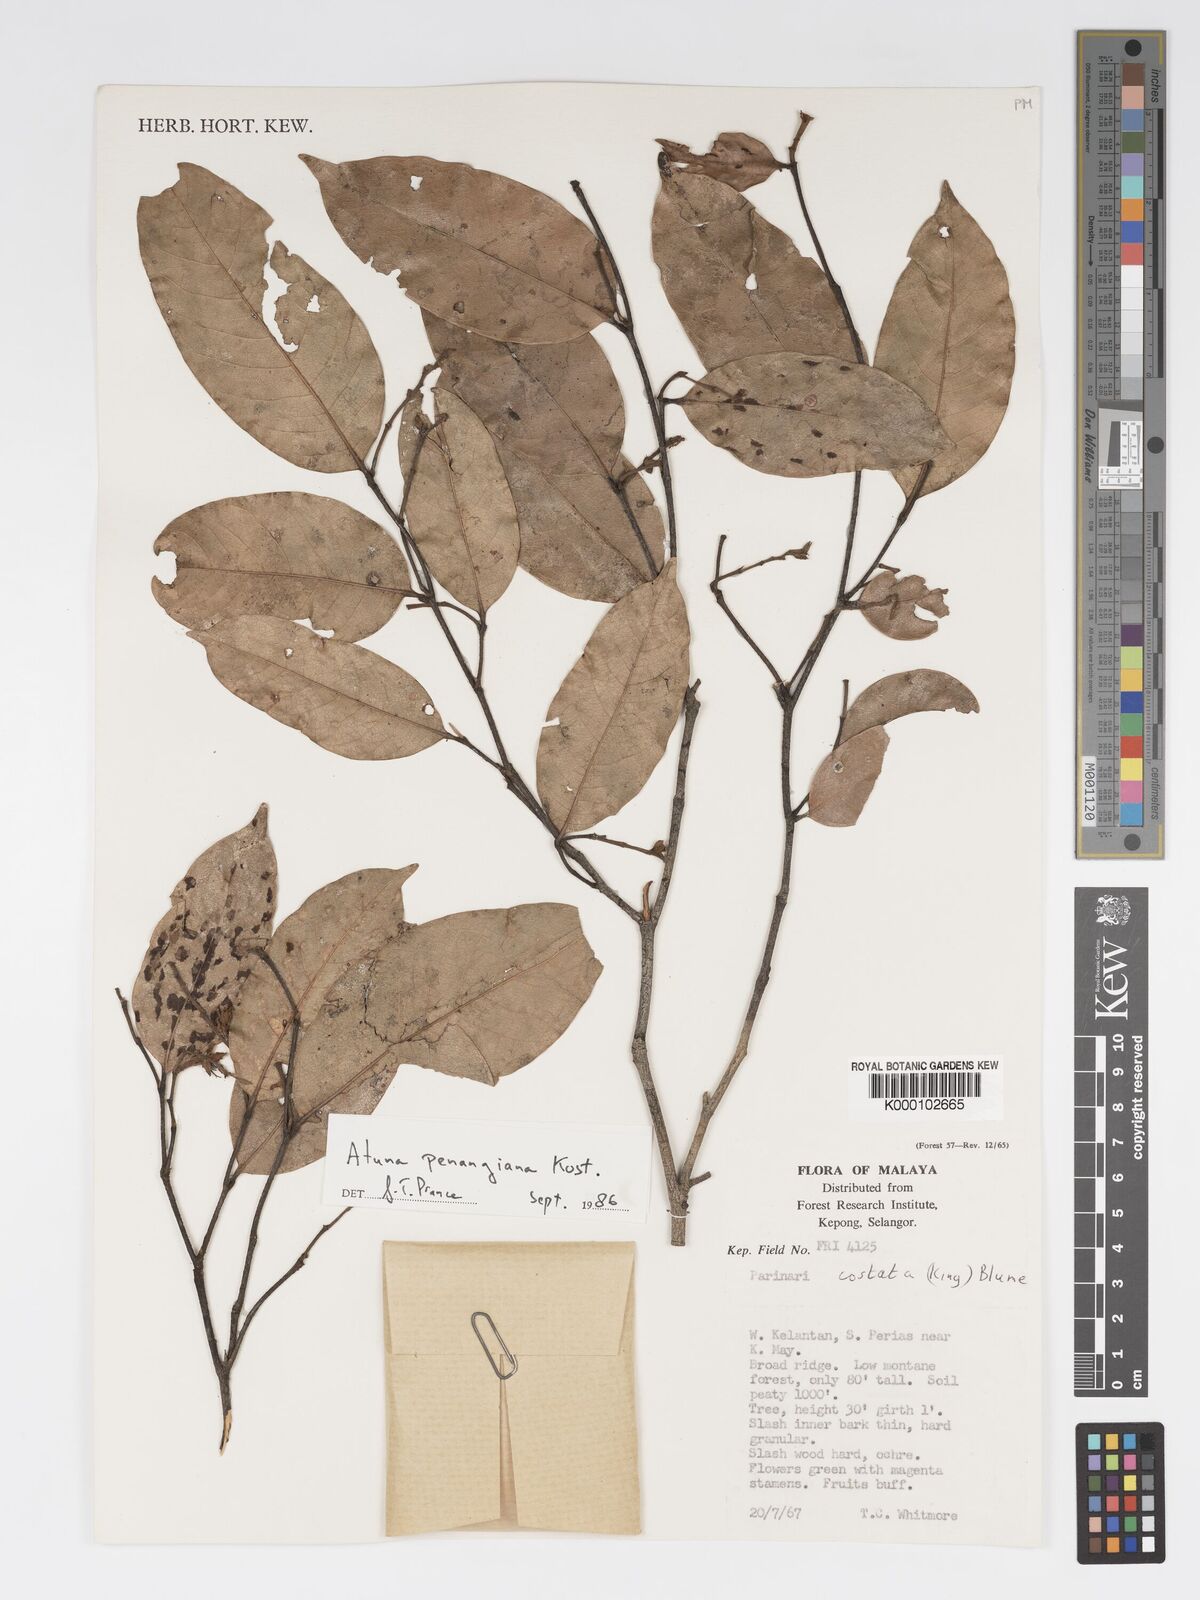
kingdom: Plantae
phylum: Tracheophyta
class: Magnoliopsida
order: Malpighiales
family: Chrysobalanaceae
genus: Atuna
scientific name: Atuna penangiana
